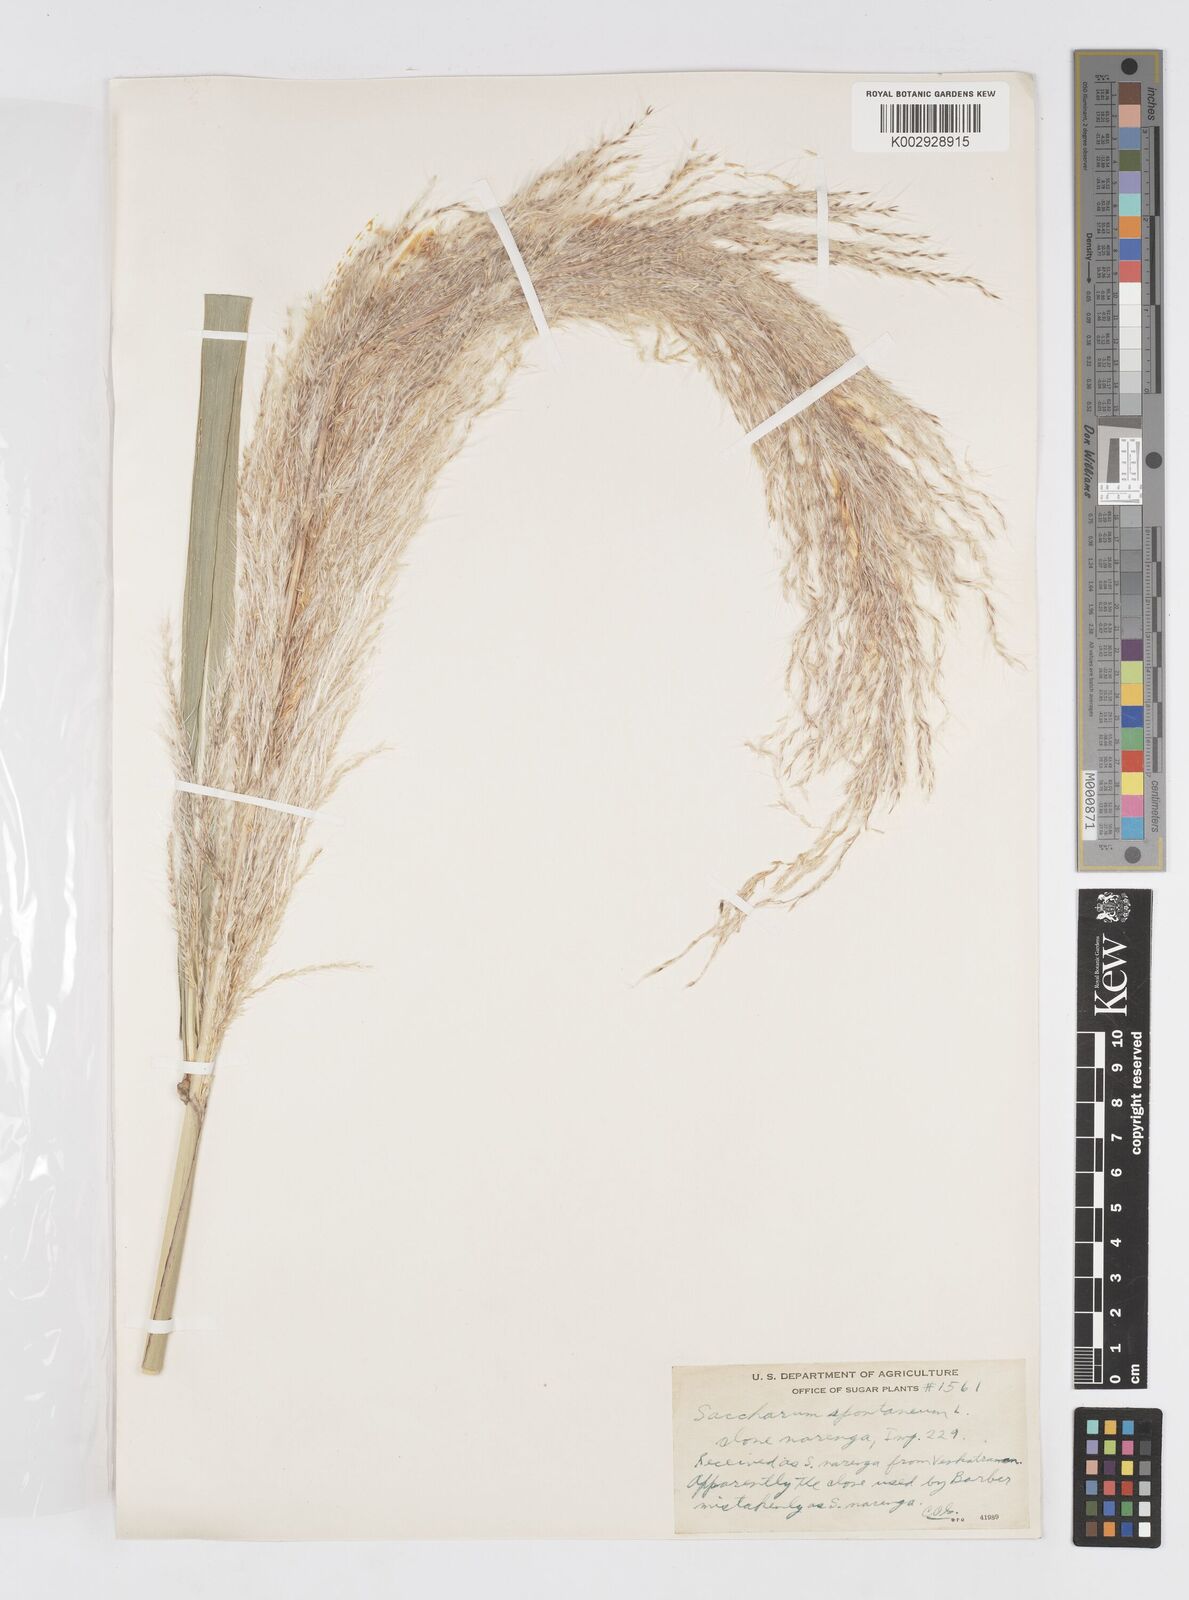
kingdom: Plantae
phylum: Tracheophyta
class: Liliopsida
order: Poales
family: Poaceae
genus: Saccharum
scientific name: Saccharum spontaneum
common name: Wild sugarcane
